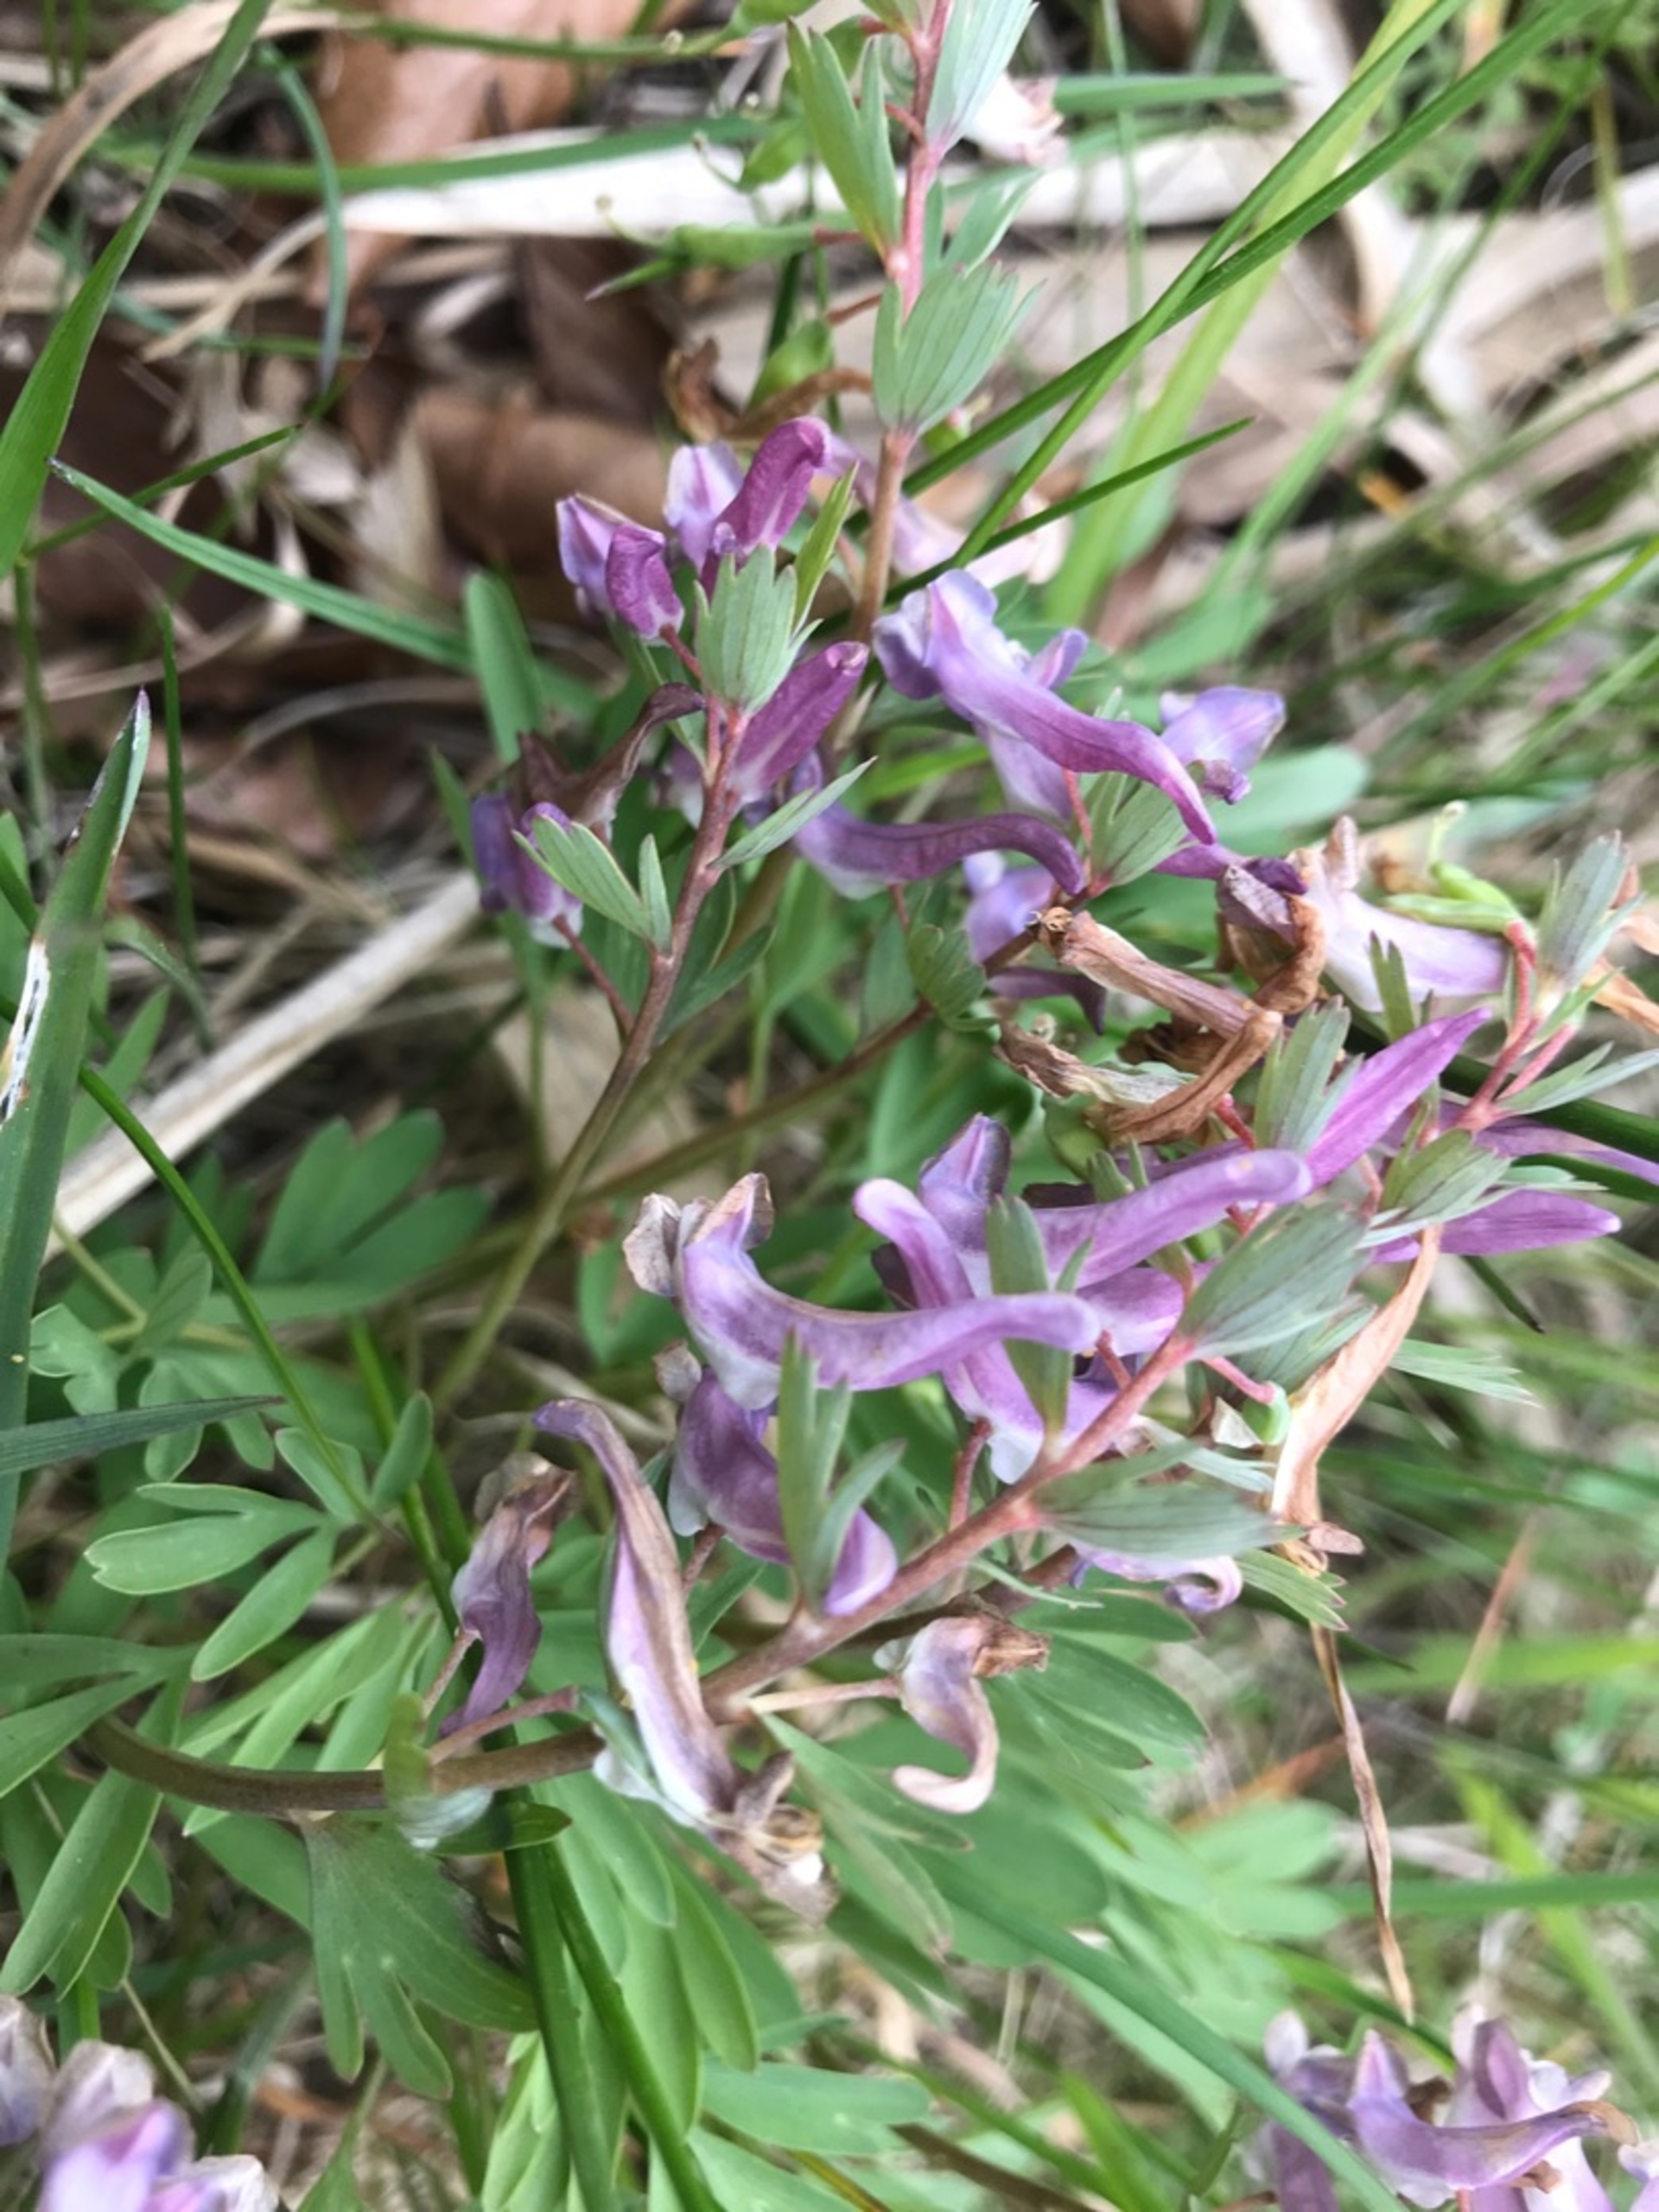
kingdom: Plantae
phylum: Tracheophyta
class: Magnoliopsida
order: Ranunculales
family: Papaveraceae
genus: Corydalis
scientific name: Corydalis solida
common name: Langstilket lærkespore
